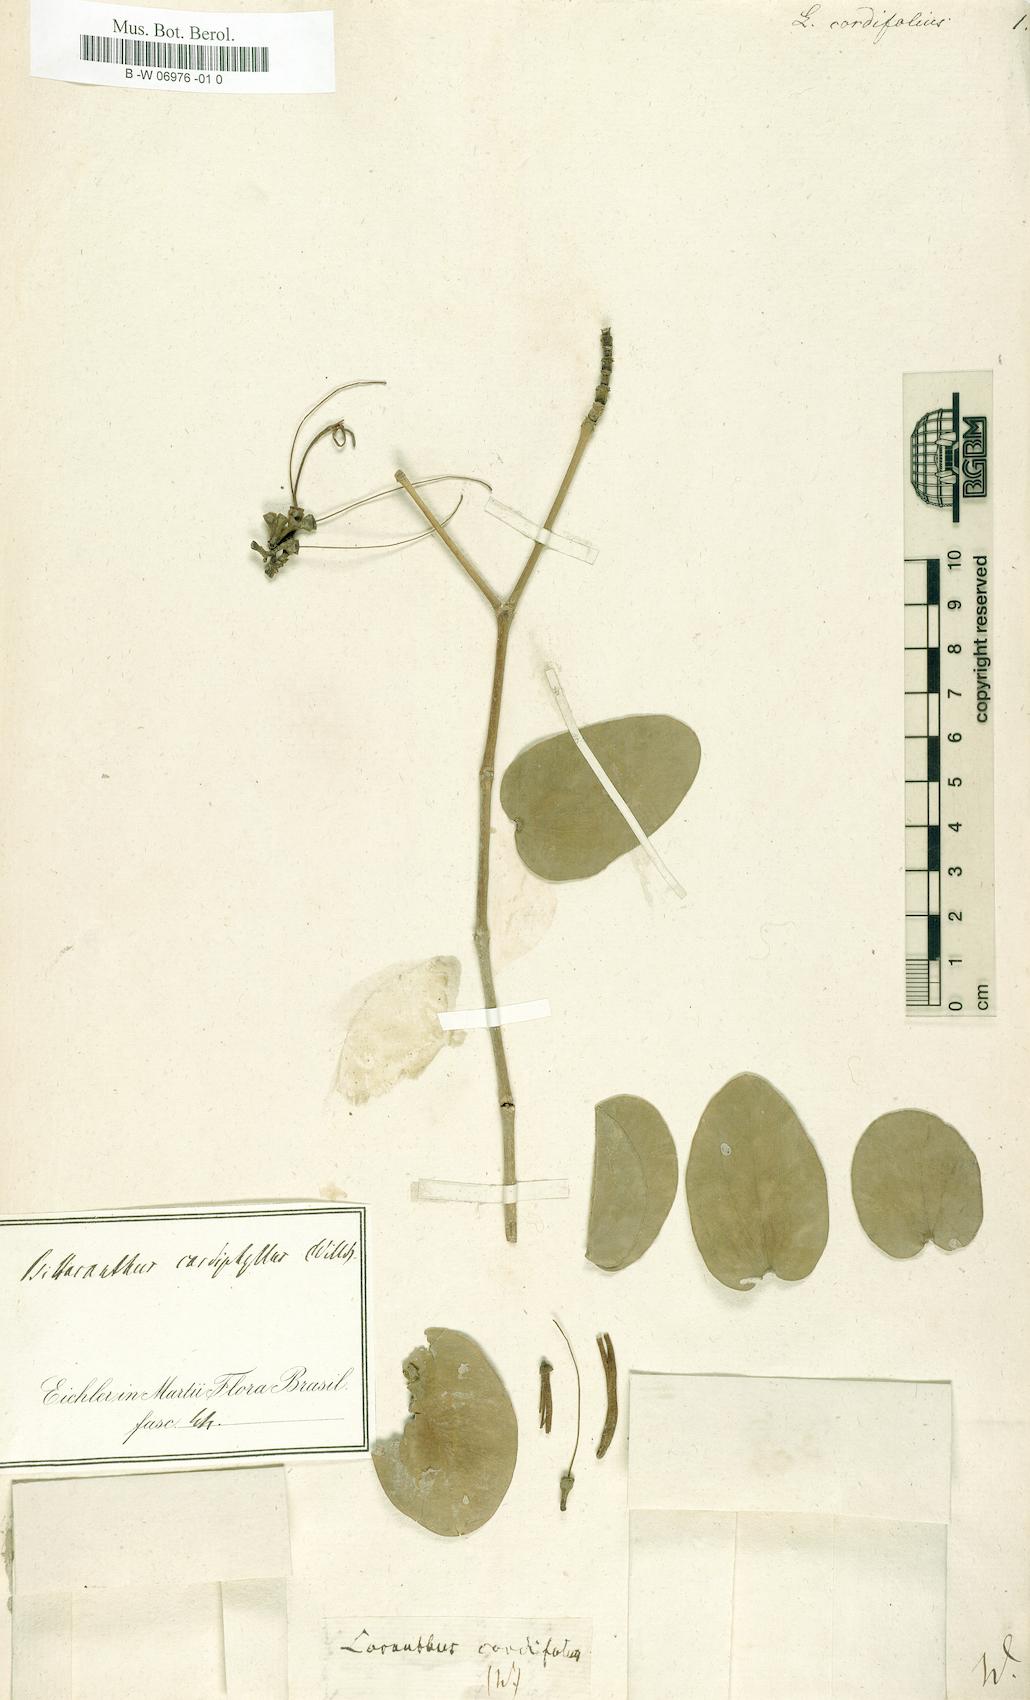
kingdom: Plantae
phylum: Tracheophyta
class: Magnoliopsida
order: Santalales
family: Loranthaceae
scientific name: Loranthaceae
